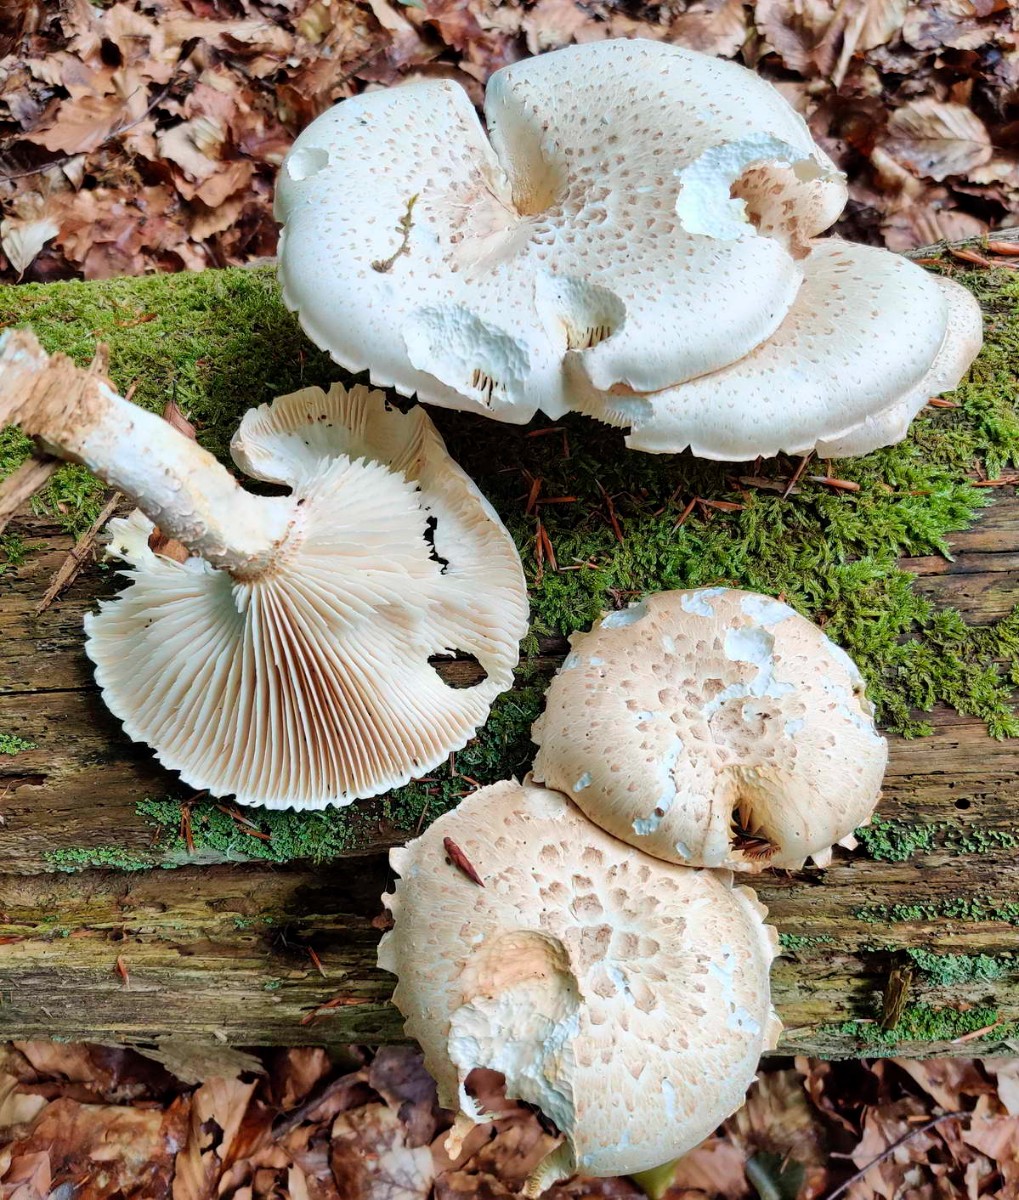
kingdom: Fungi
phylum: Basidiomycota
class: Agaricomycetes
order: Gloeophyllales
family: Gloeophyllaceae
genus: Neolentinus
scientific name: Neolentinus lepideus
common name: skællet sejhat
